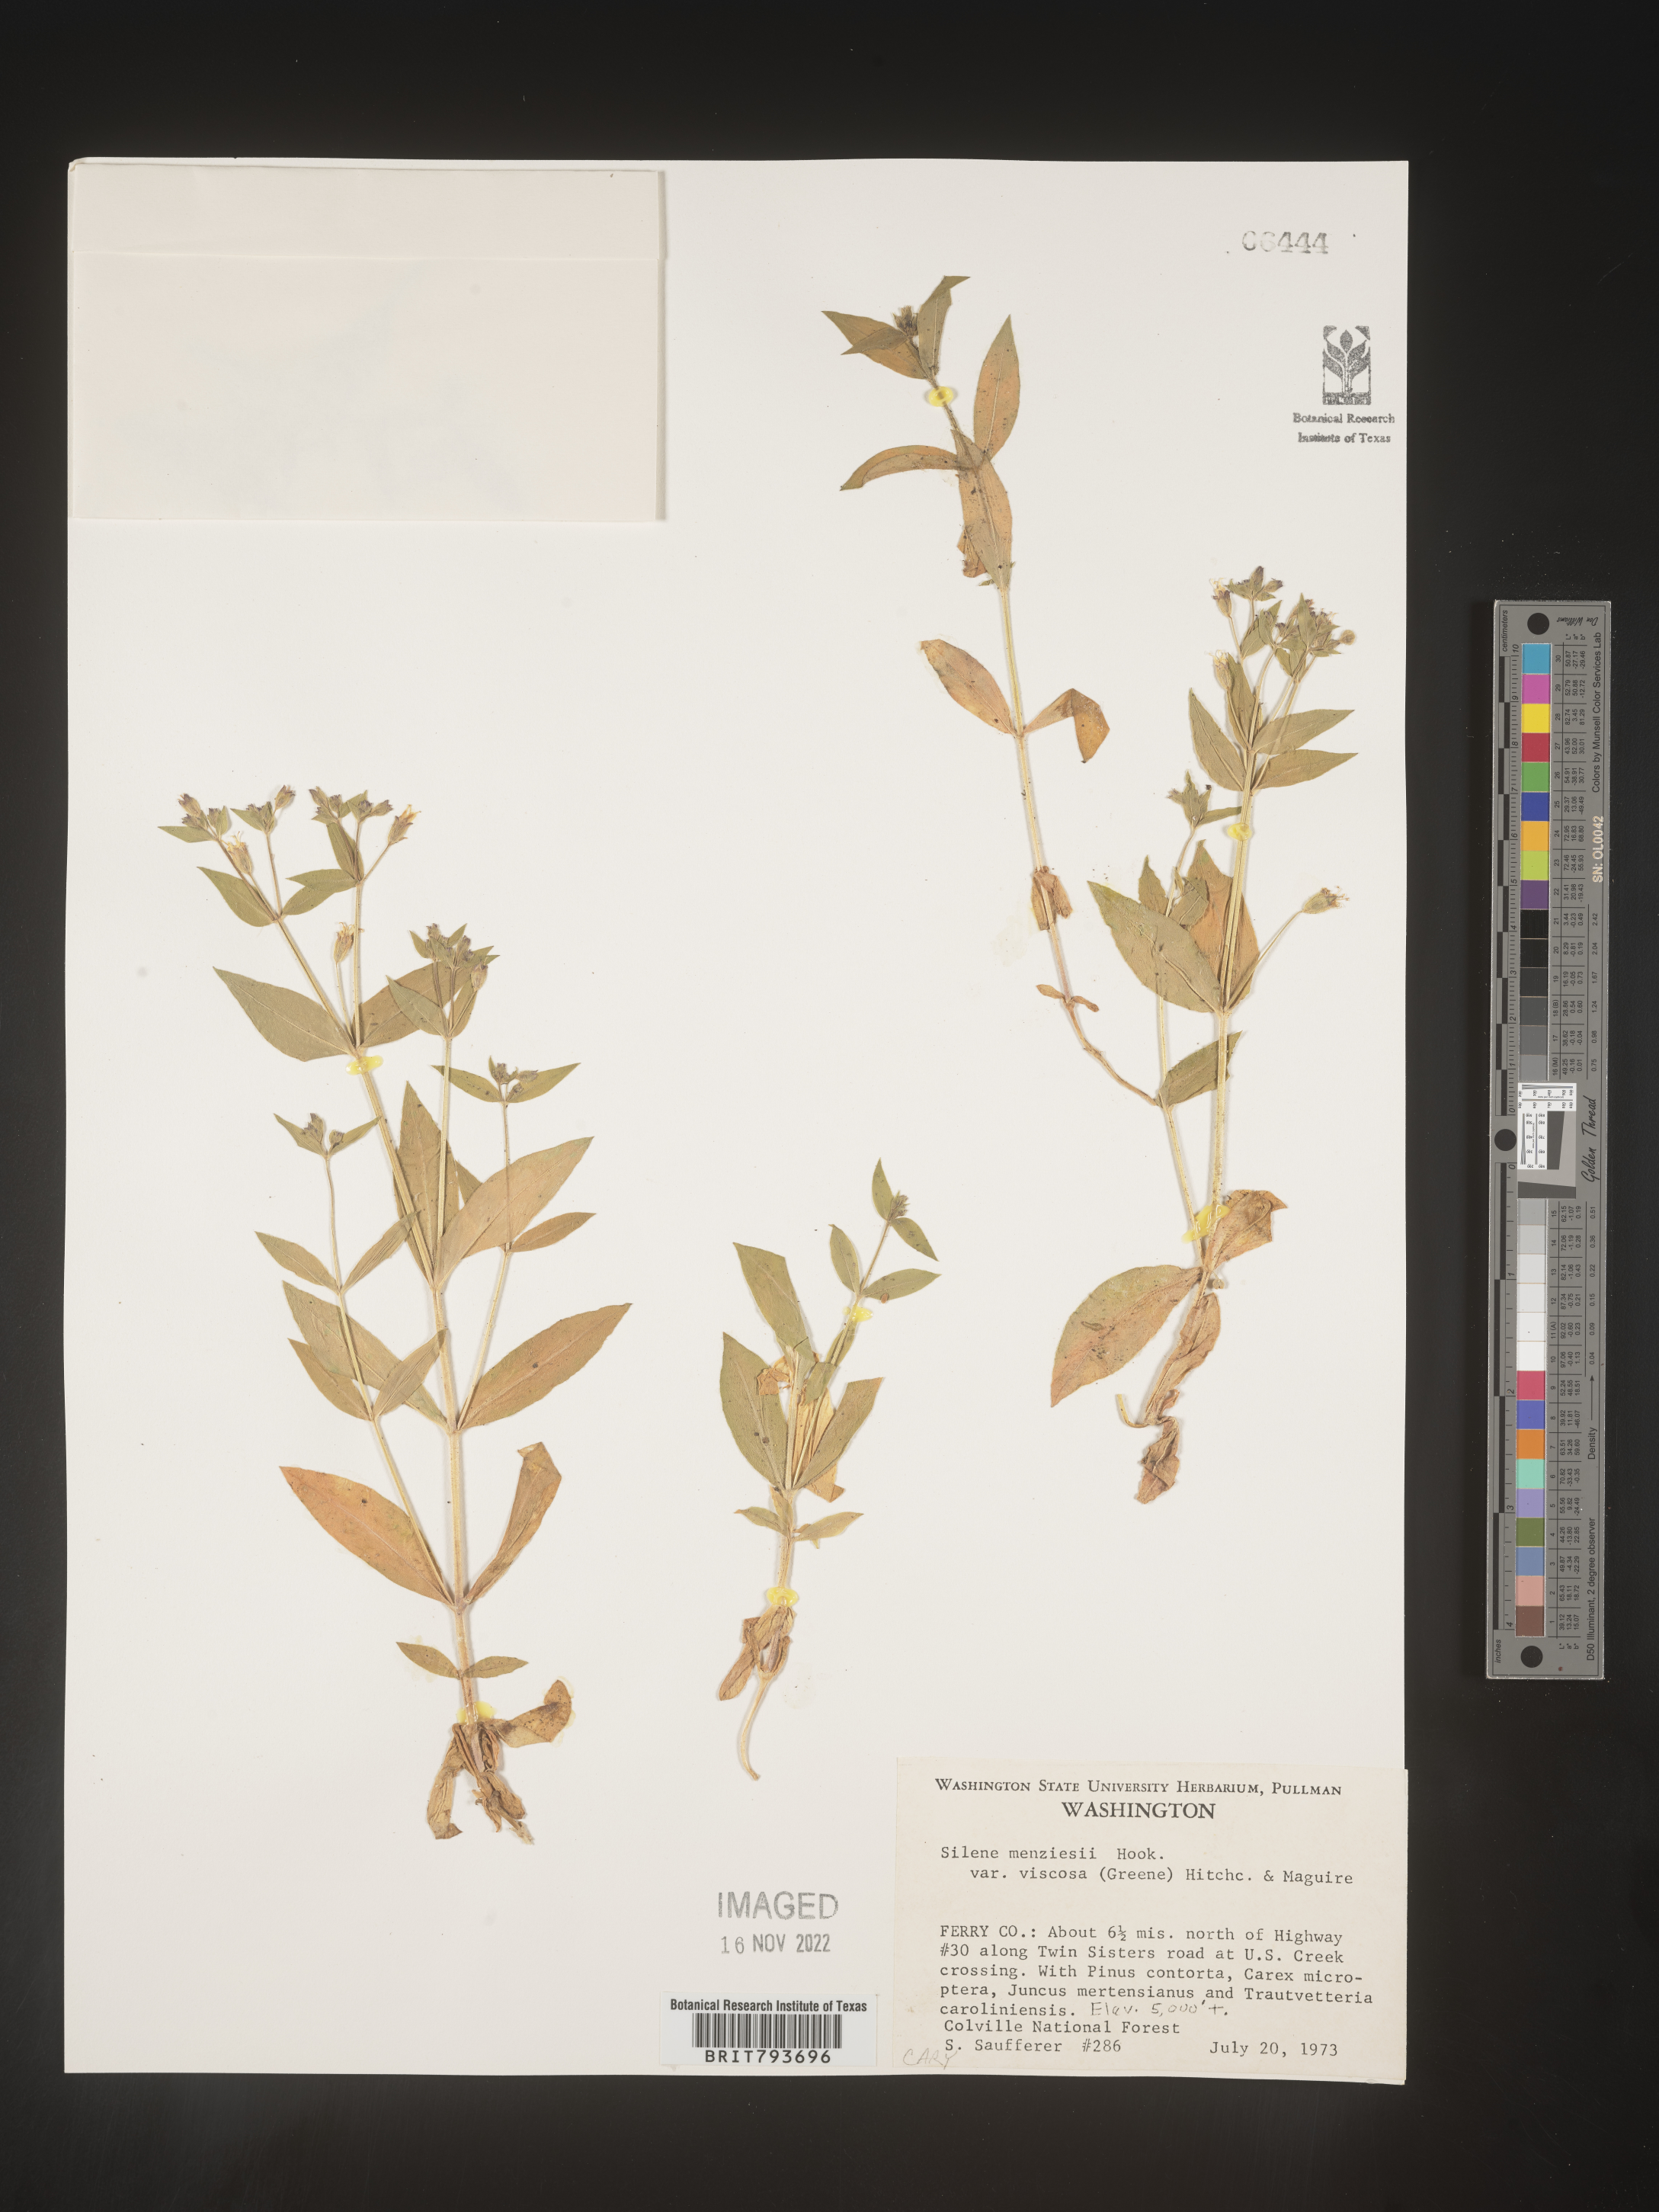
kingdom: Plantae
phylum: Tracheophyta
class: Magnoliopsida
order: Caryophyllales
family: Caryophyllaceae
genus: Silene
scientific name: Silene menziesii
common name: Menzies's catchfly
